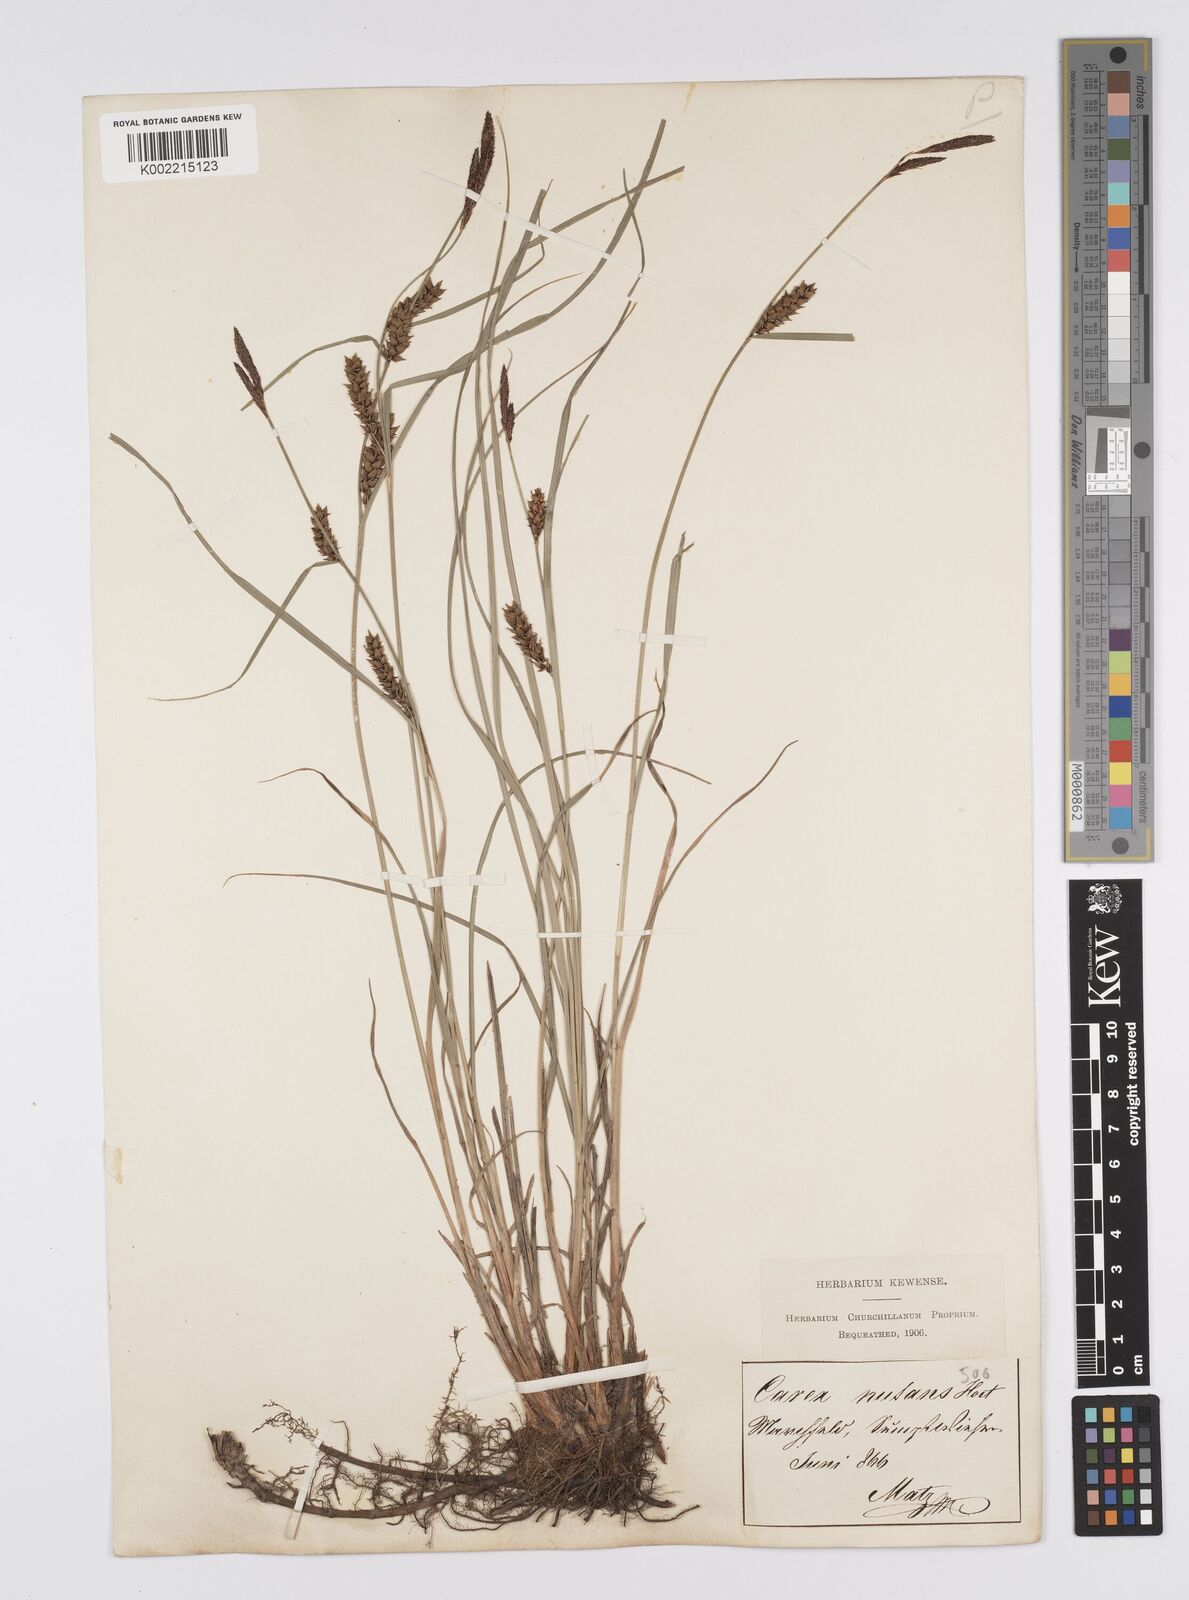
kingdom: Plantae
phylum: Tracheophyta
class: Liliopsida
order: Poales
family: Cyperaceae
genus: Carex
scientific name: Carex melanostachya
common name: Black-spiked sedge
